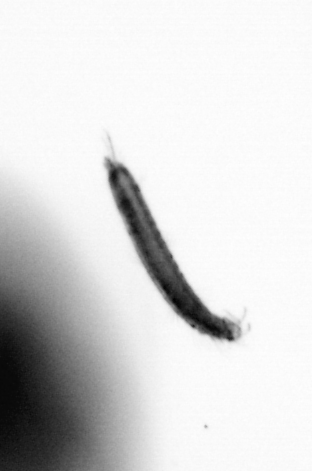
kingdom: Animalia
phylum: Annelida
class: Polychaeta
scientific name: Polychaeta
